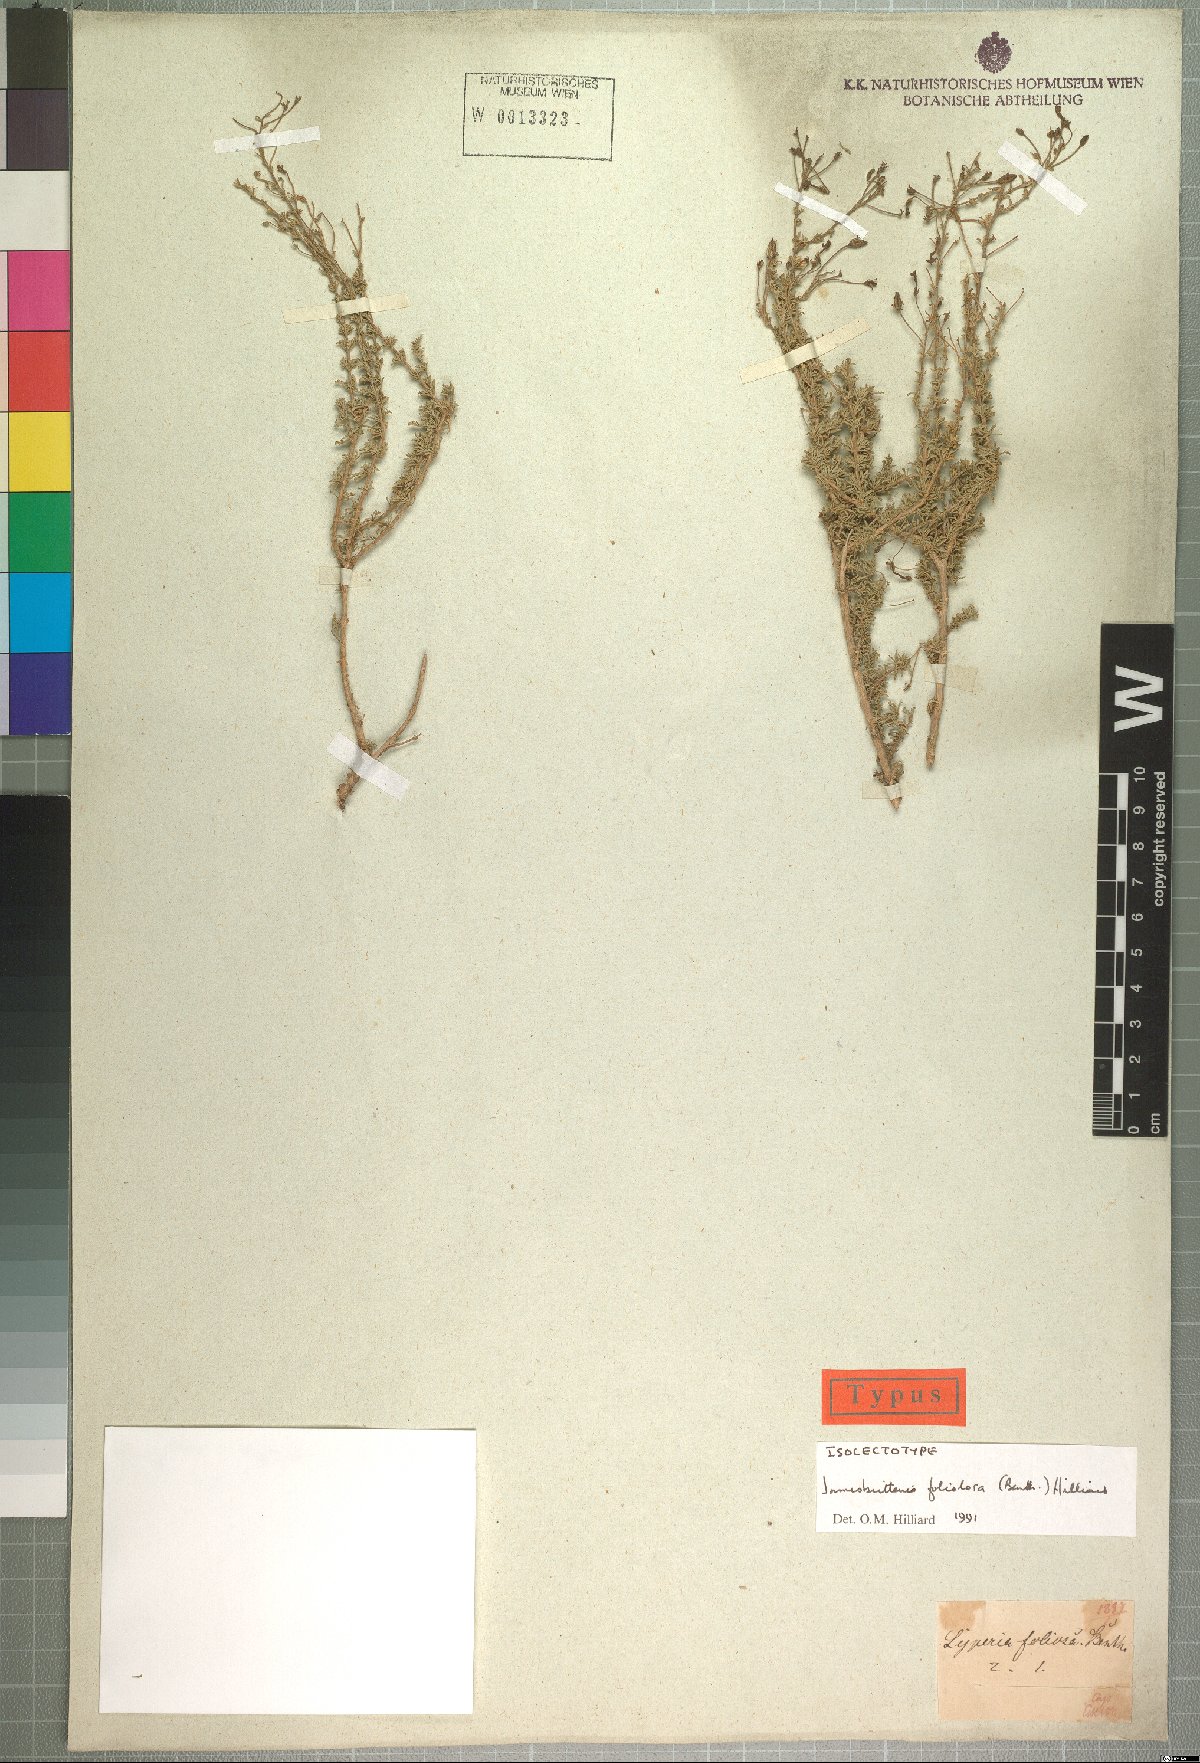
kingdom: Plantae
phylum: Tracheophyta
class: Magnoliopsida
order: Lamiales
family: Scrophulariaceae
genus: Jamesbrittenia
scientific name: Jamesbrittenia foliolosa
